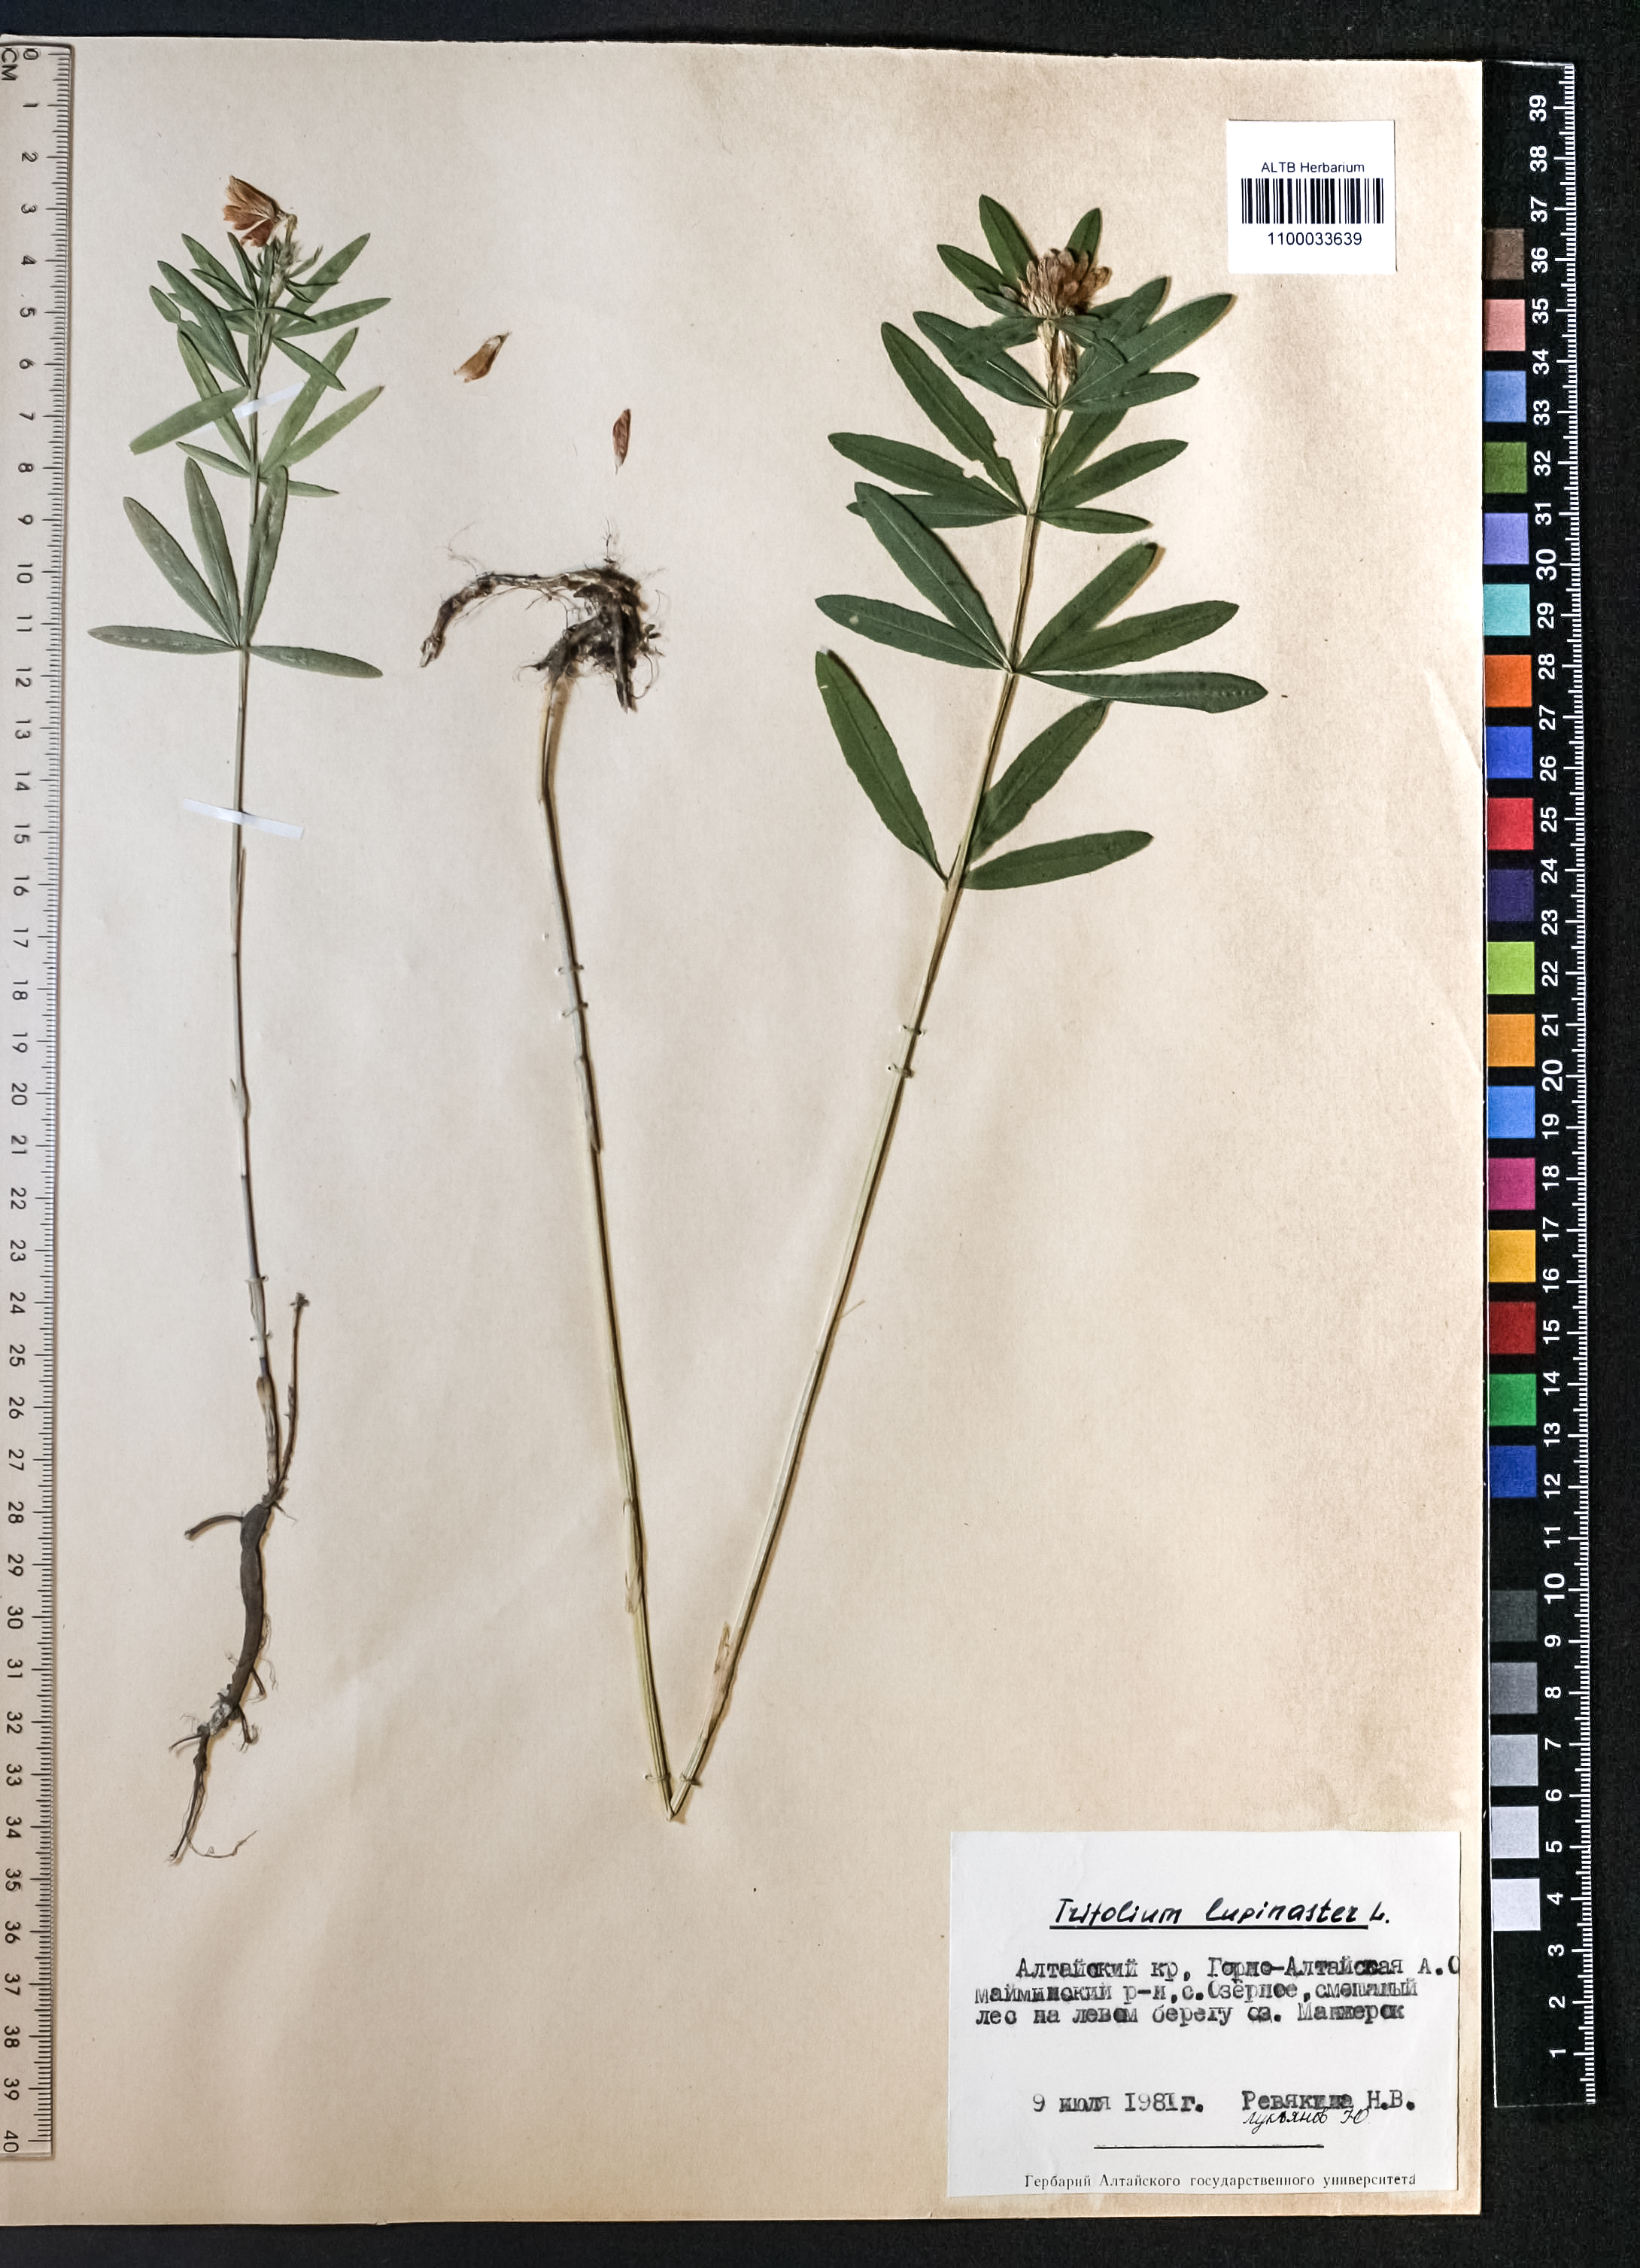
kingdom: Plantae
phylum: Tracheophyta
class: Magnoliopsida
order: Fabales
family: Fabaceae
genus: Trifolium
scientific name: Trifolium lupinaster
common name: Lupine clover
